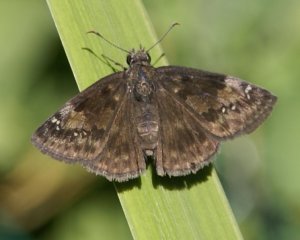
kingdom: Animalia
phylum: Arthropoda
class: Insecta
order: Lepidoptera
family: Hesperiidae
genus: Gesta
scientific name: Gesta
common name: Wild Indigo Duskywing
